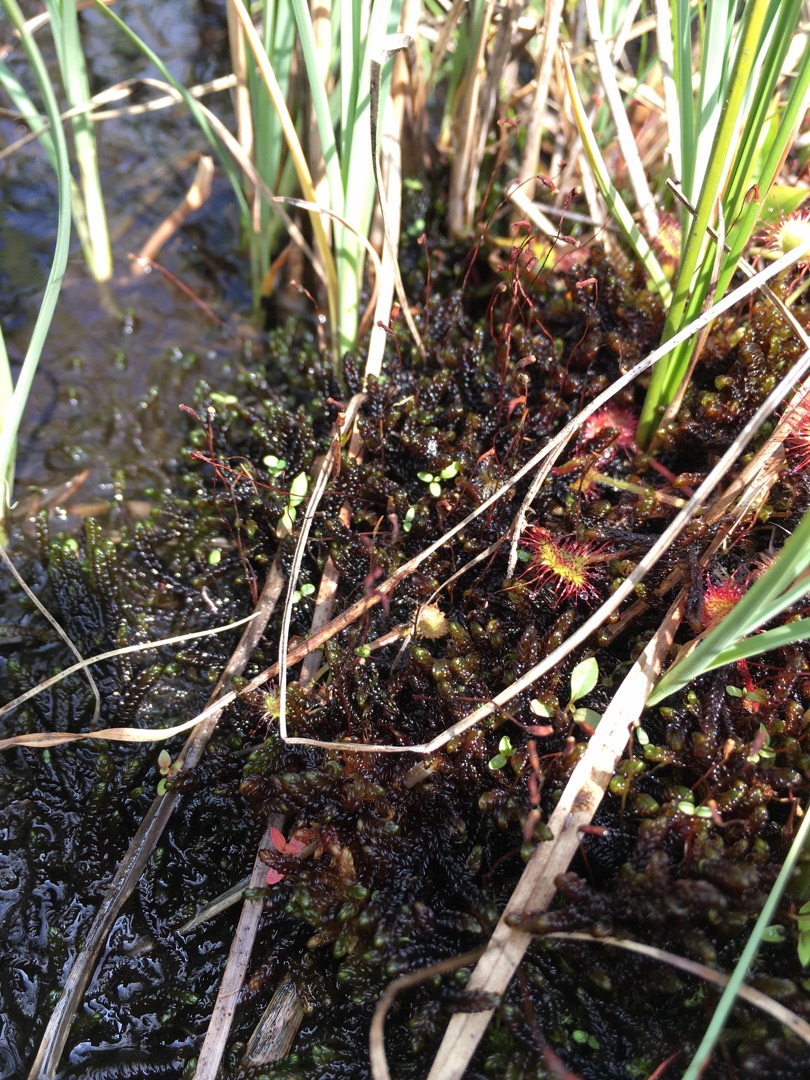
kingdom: Plantae
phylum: Bryophyta
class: Bryopsida
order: Hypnales
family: Scorpidiaceae
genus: Scorpidium
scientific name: Scorpidium revolvens
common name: Rød krumblad
